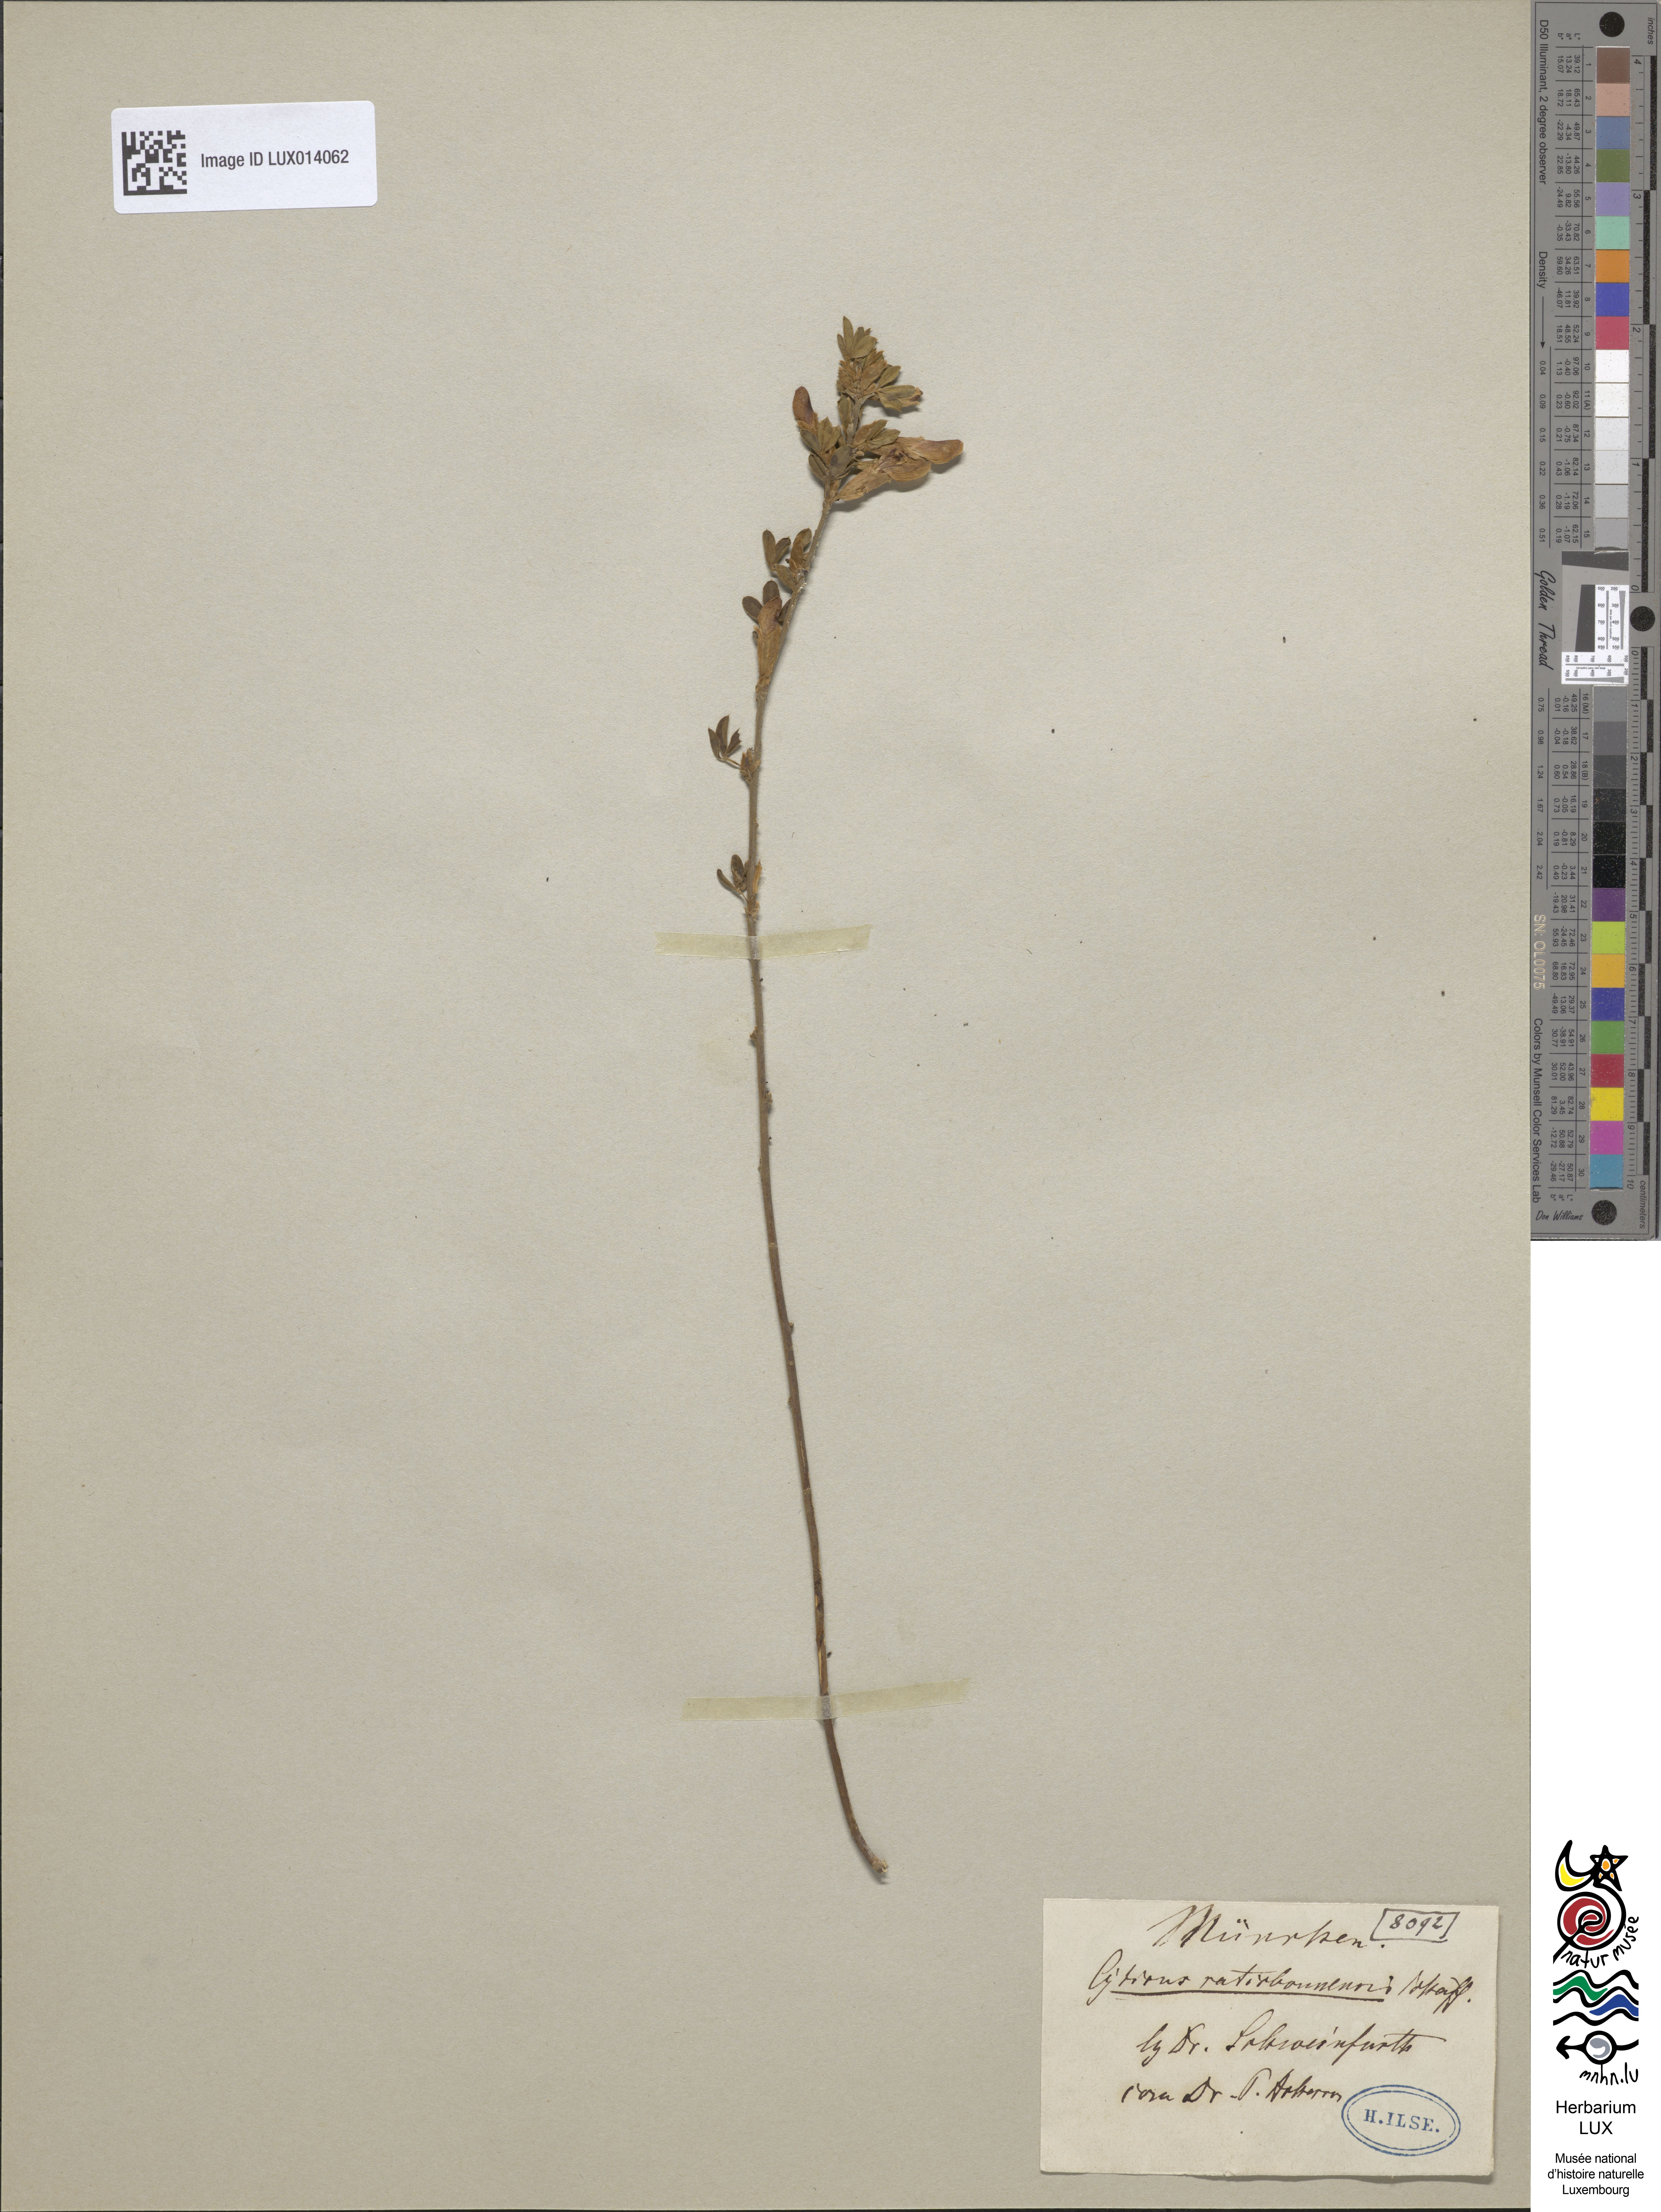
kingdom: Plantae
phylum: Tracheophyta
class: Magnoliopsida
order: Fabales
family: Fabaceae
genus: Chamaecytisus
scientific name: Chamaecytisus ratisbonensis
